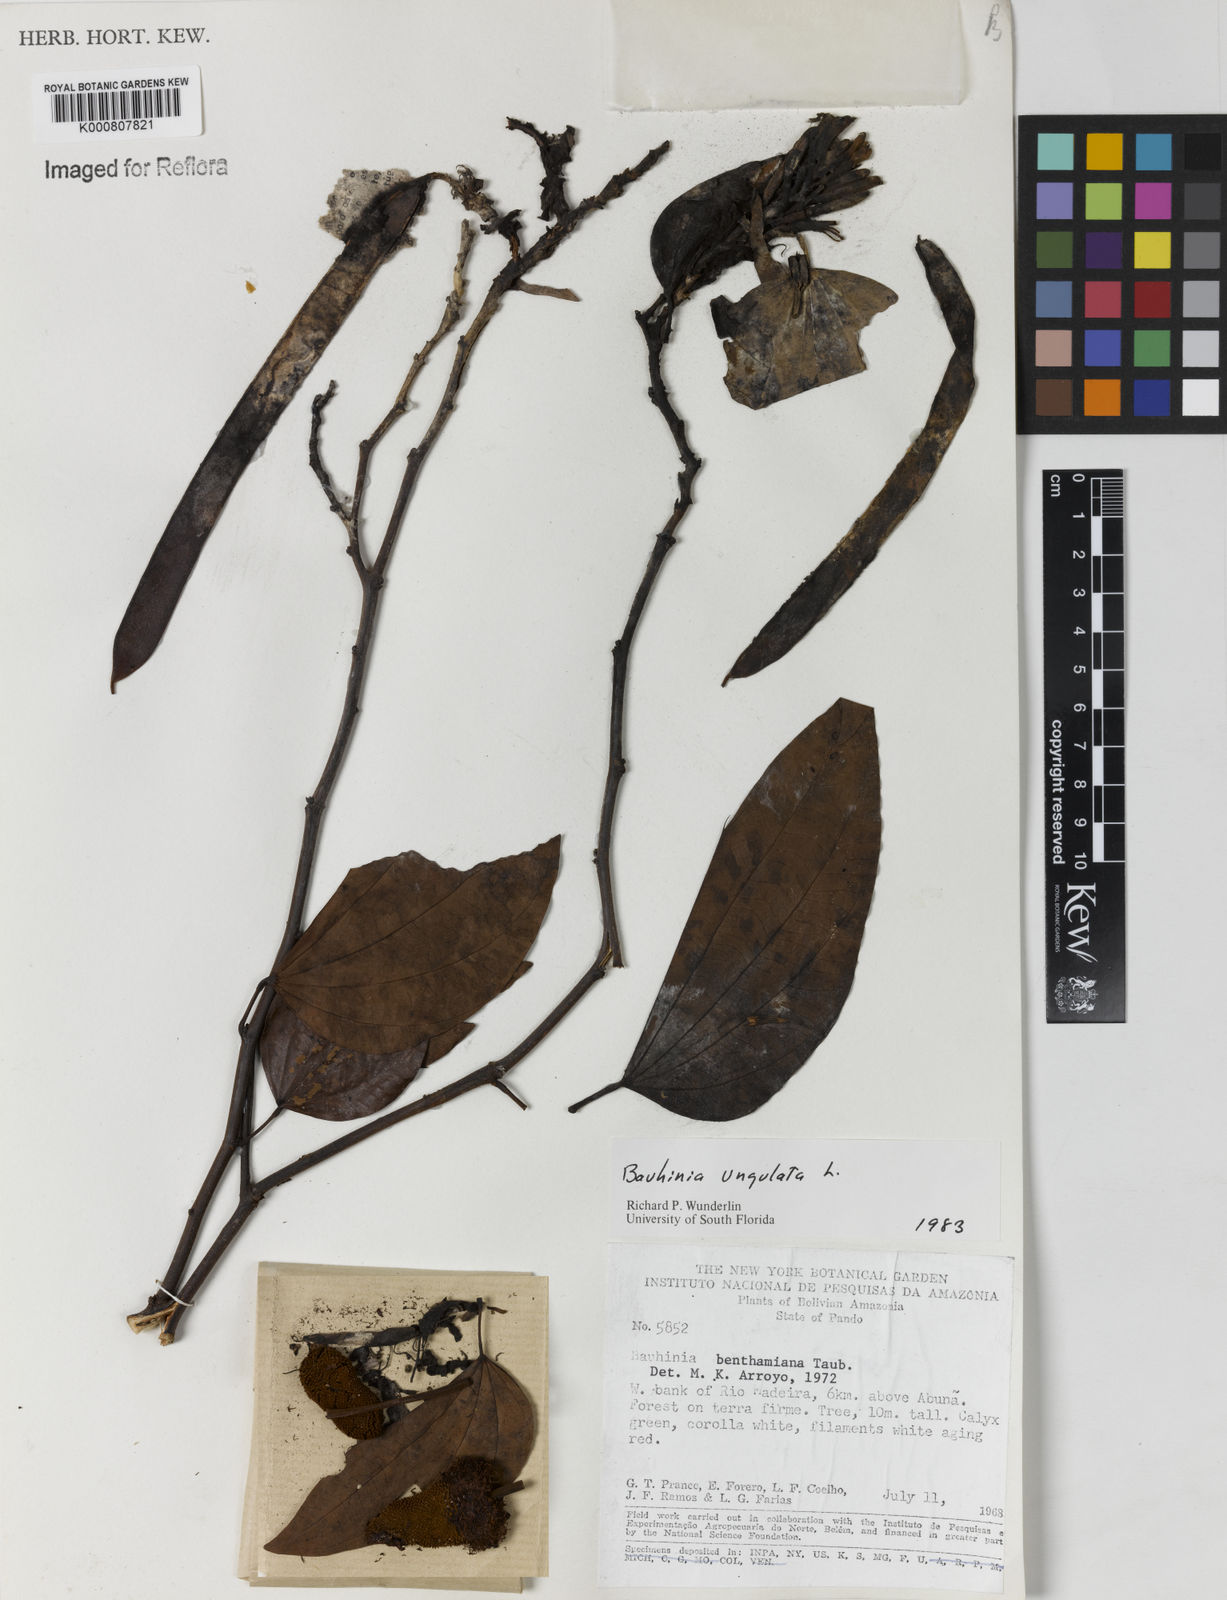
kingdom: Plantae
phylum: Tracheophyta
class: Magnoliopsida
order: Fabales
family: Fabaceae
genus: Bauhinia
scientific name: Bauhinia ungulata
